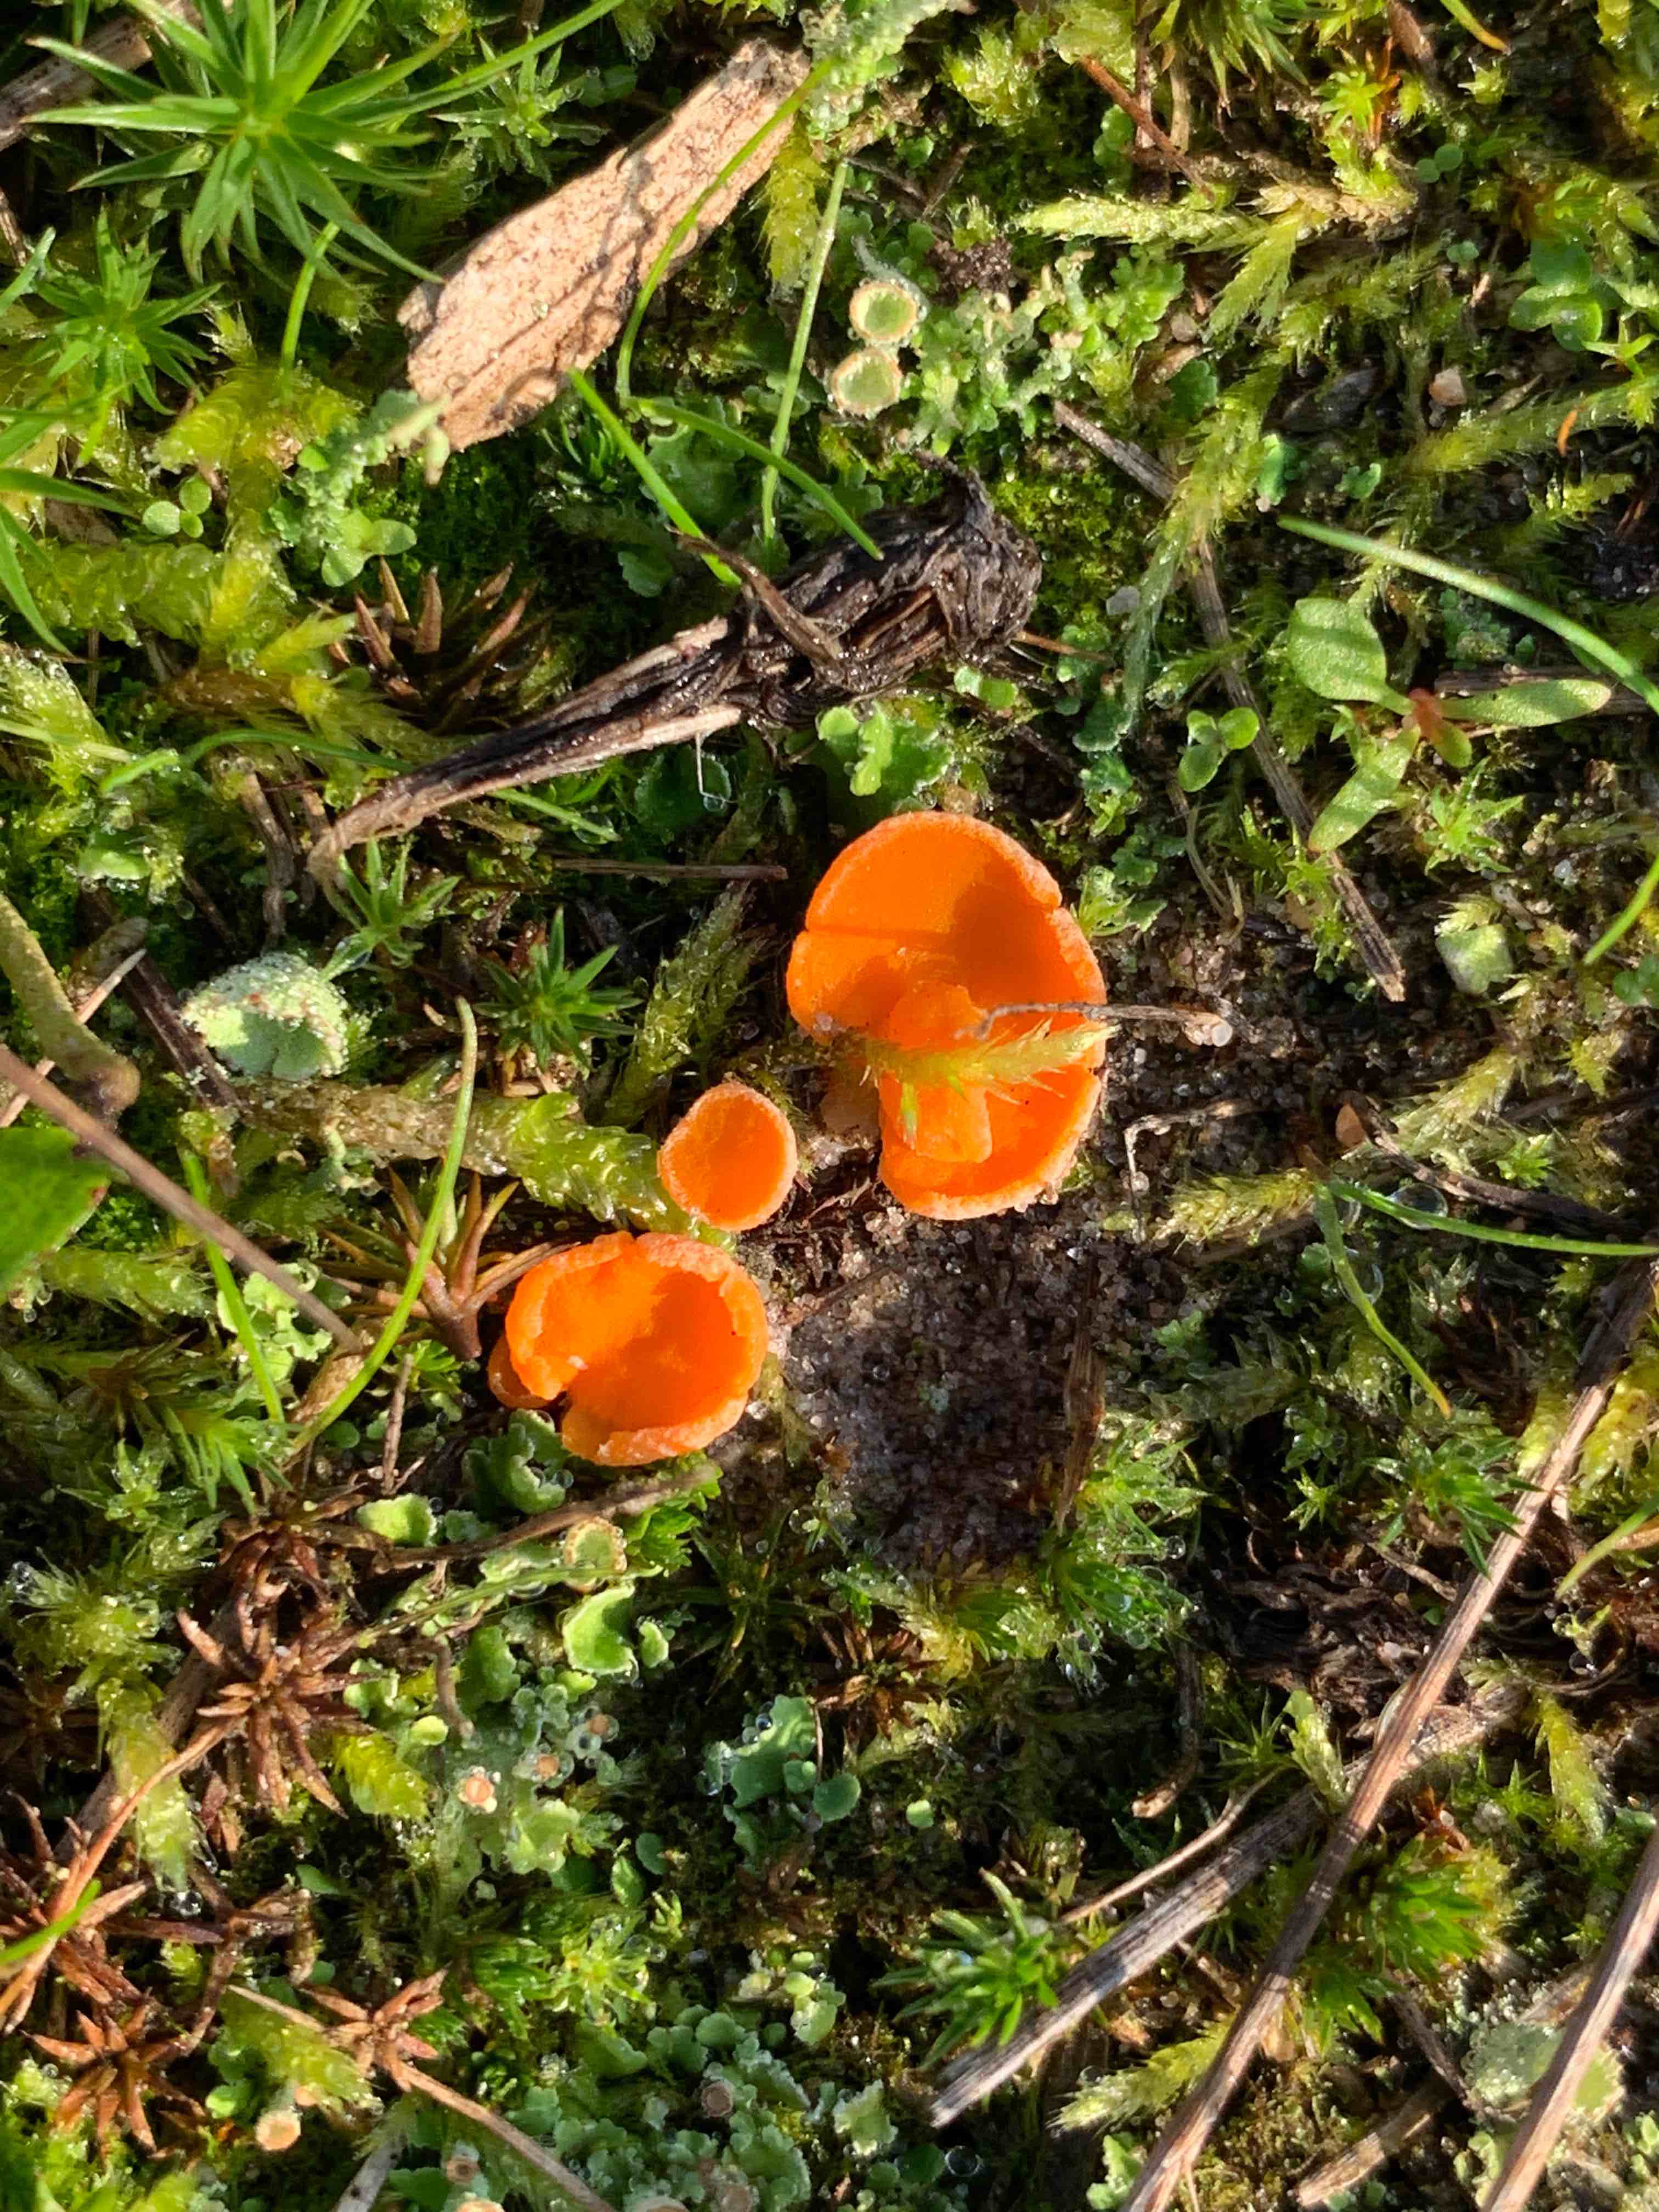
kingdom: Fungi
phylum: Ascomycota
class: Pezizomycetes
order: Pezizales
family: Pyronemataceae
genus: Neottiella
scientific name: Neottiella
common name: mosbæger
